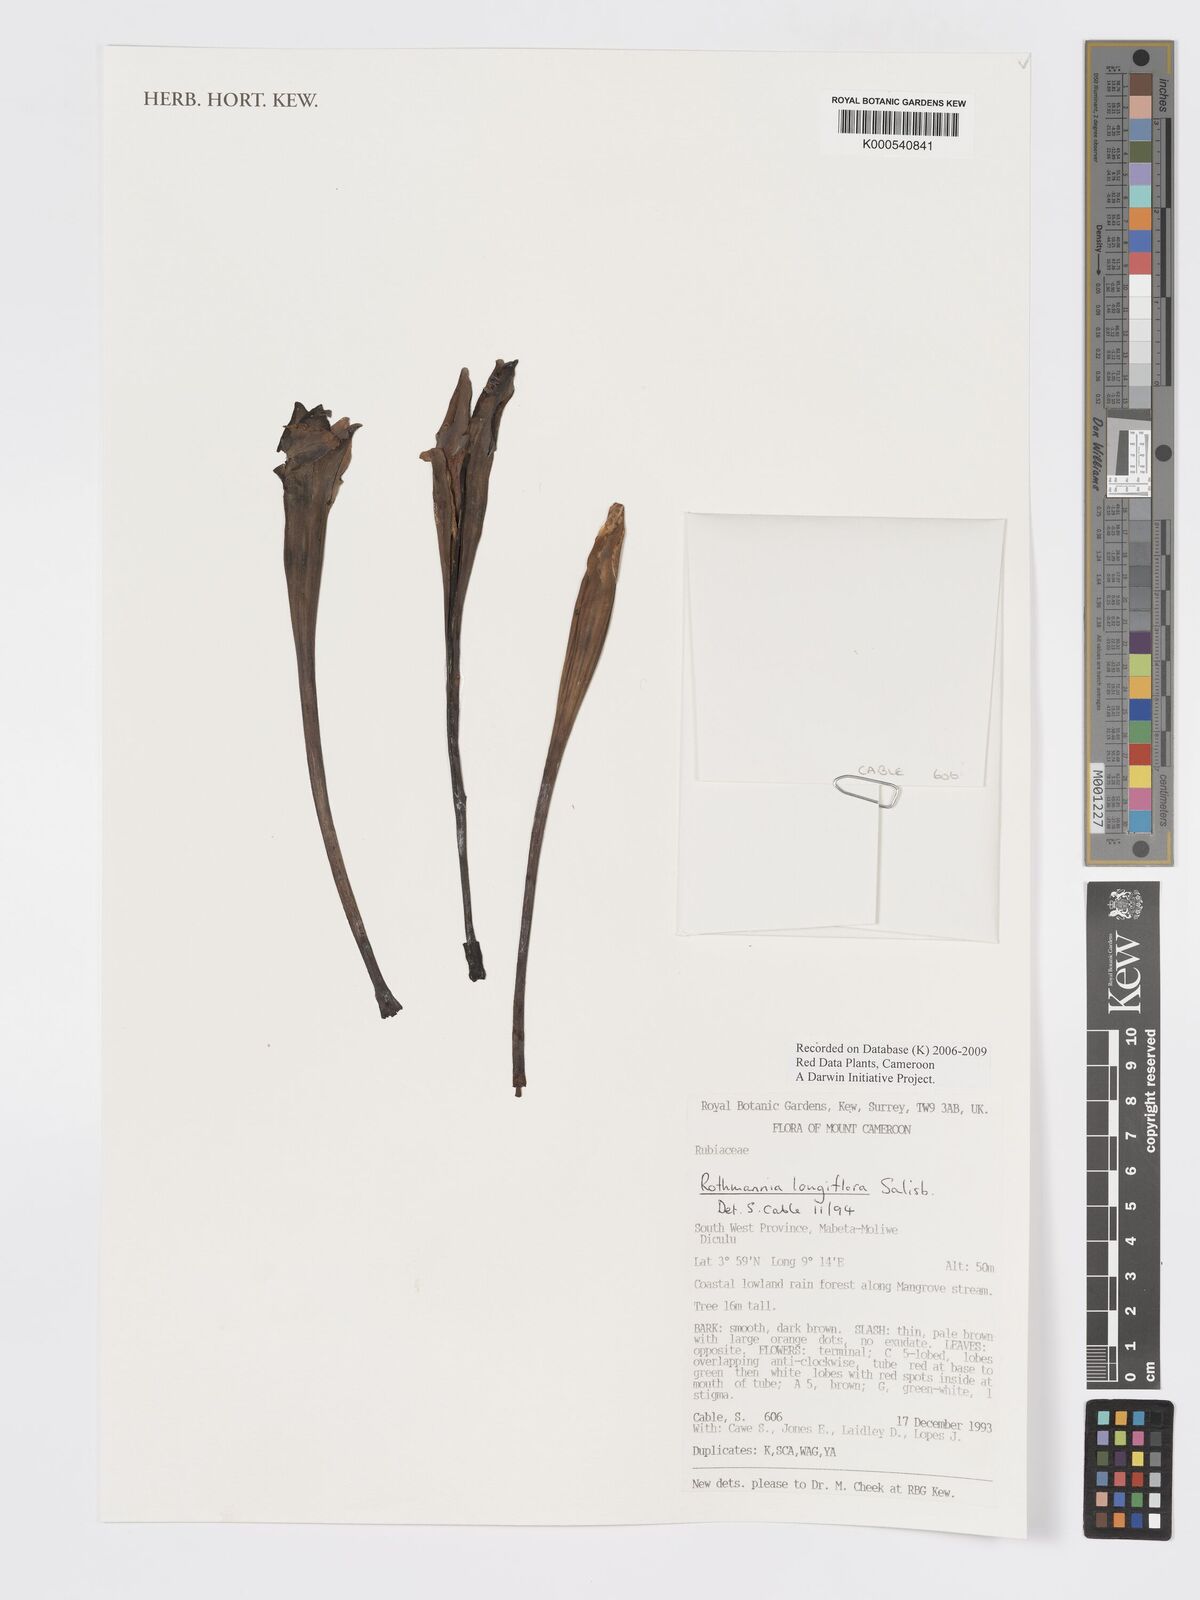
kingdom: Plantae
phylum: Tracheophyta
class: Magnoliopsida
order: Gentianales
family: Rubiaceae
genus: Rothmannia
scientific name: Rothmannia longiflora
